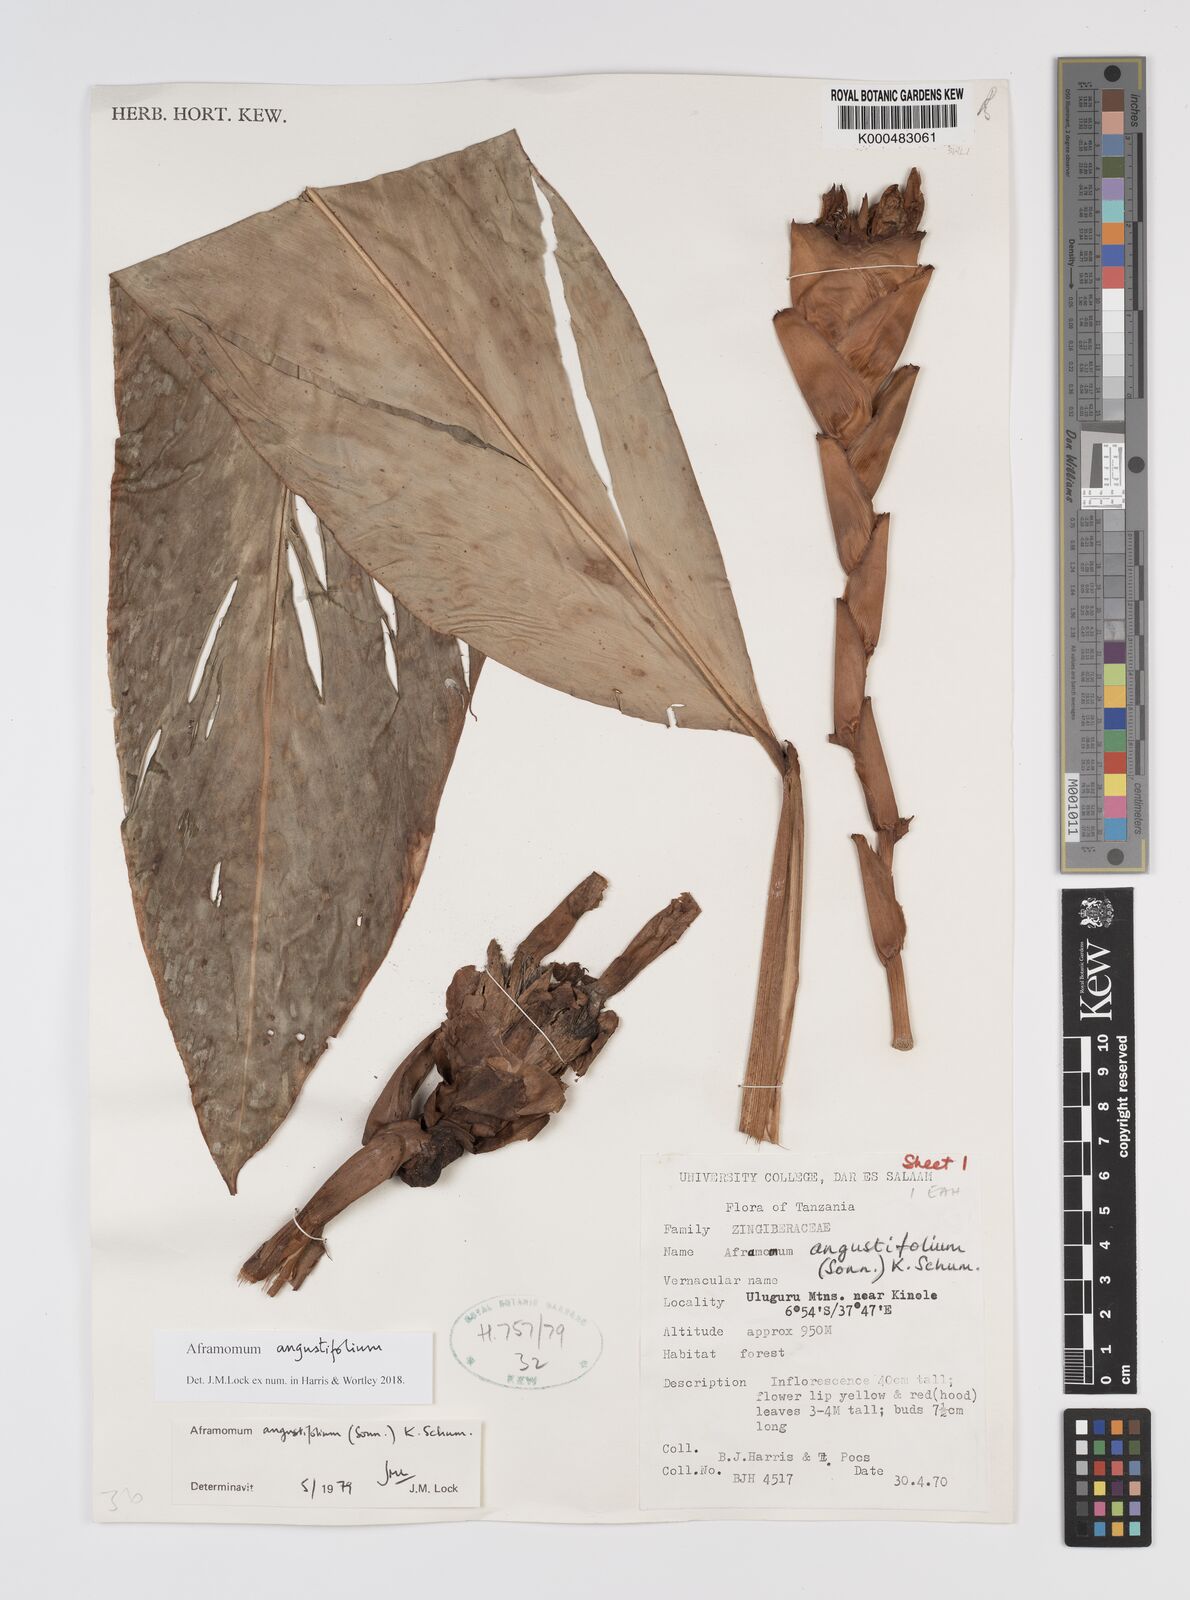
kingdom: Plantae
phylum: Tracheophyta
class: Liliopsida
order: Zingiberales
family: Zingiberaceae
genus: Aframomum
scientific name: Aframomum angustifolium
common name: Guinea grains
